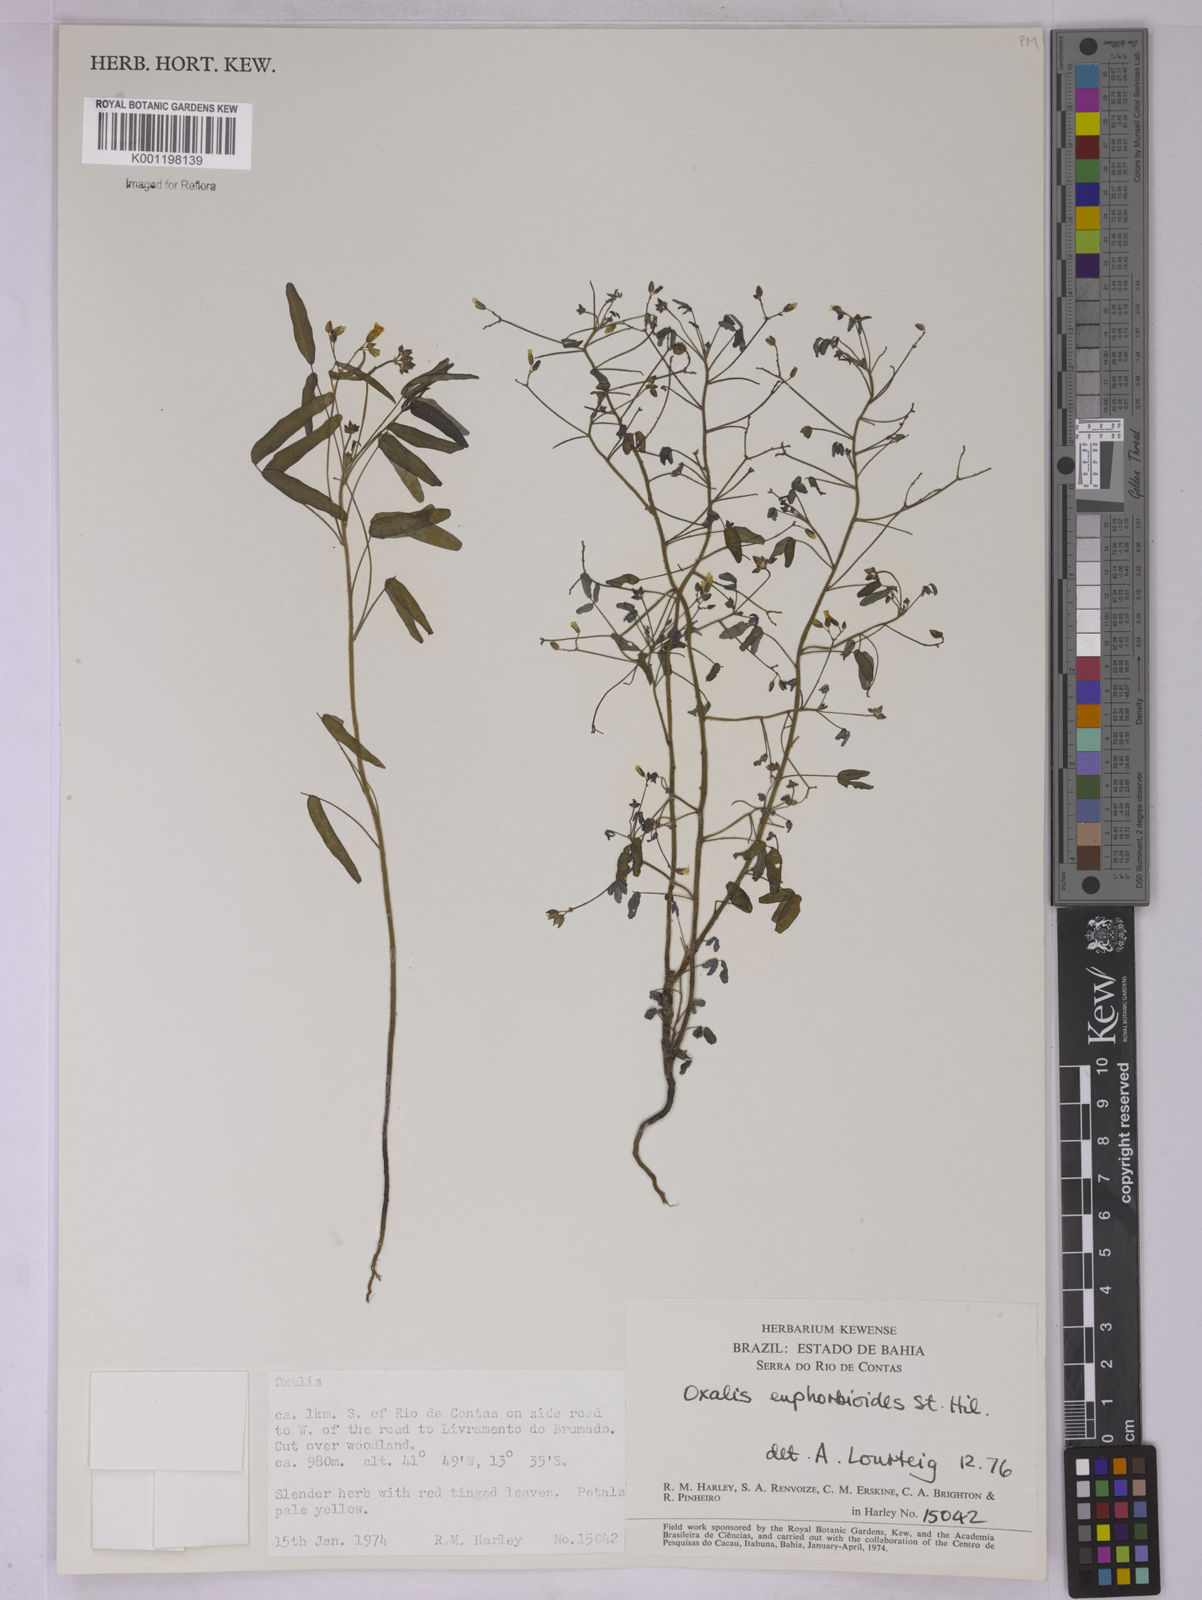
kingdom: Plantae
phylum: Tracheophyta
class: Magnoliopsida
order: Oxalidales
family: Oxalidaceae
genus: Oxalis
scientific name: Oxalis divaricata
